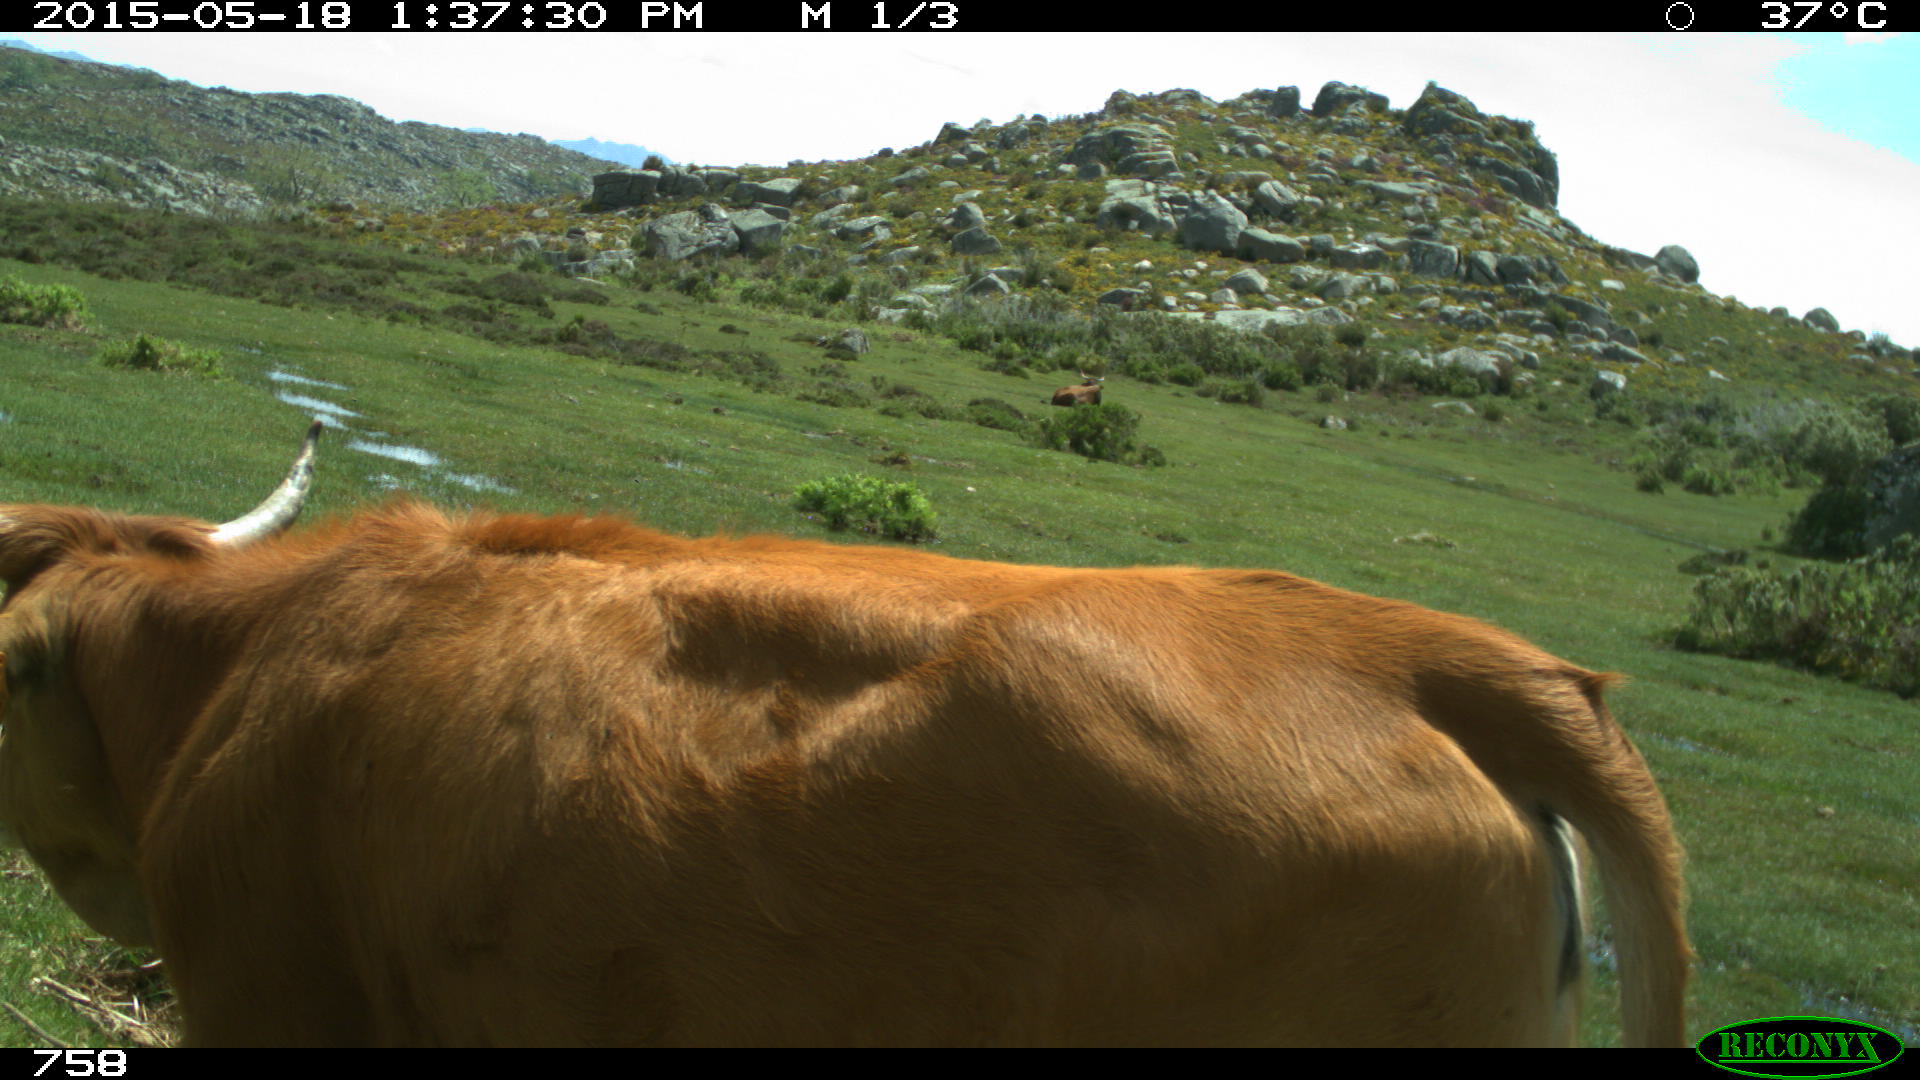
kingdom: Animalia
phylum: Chordata
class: Mammalia
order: Artiodactyla
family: Bovidae
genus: Bos
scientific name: Bos taurus
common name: Domesticated cattle
